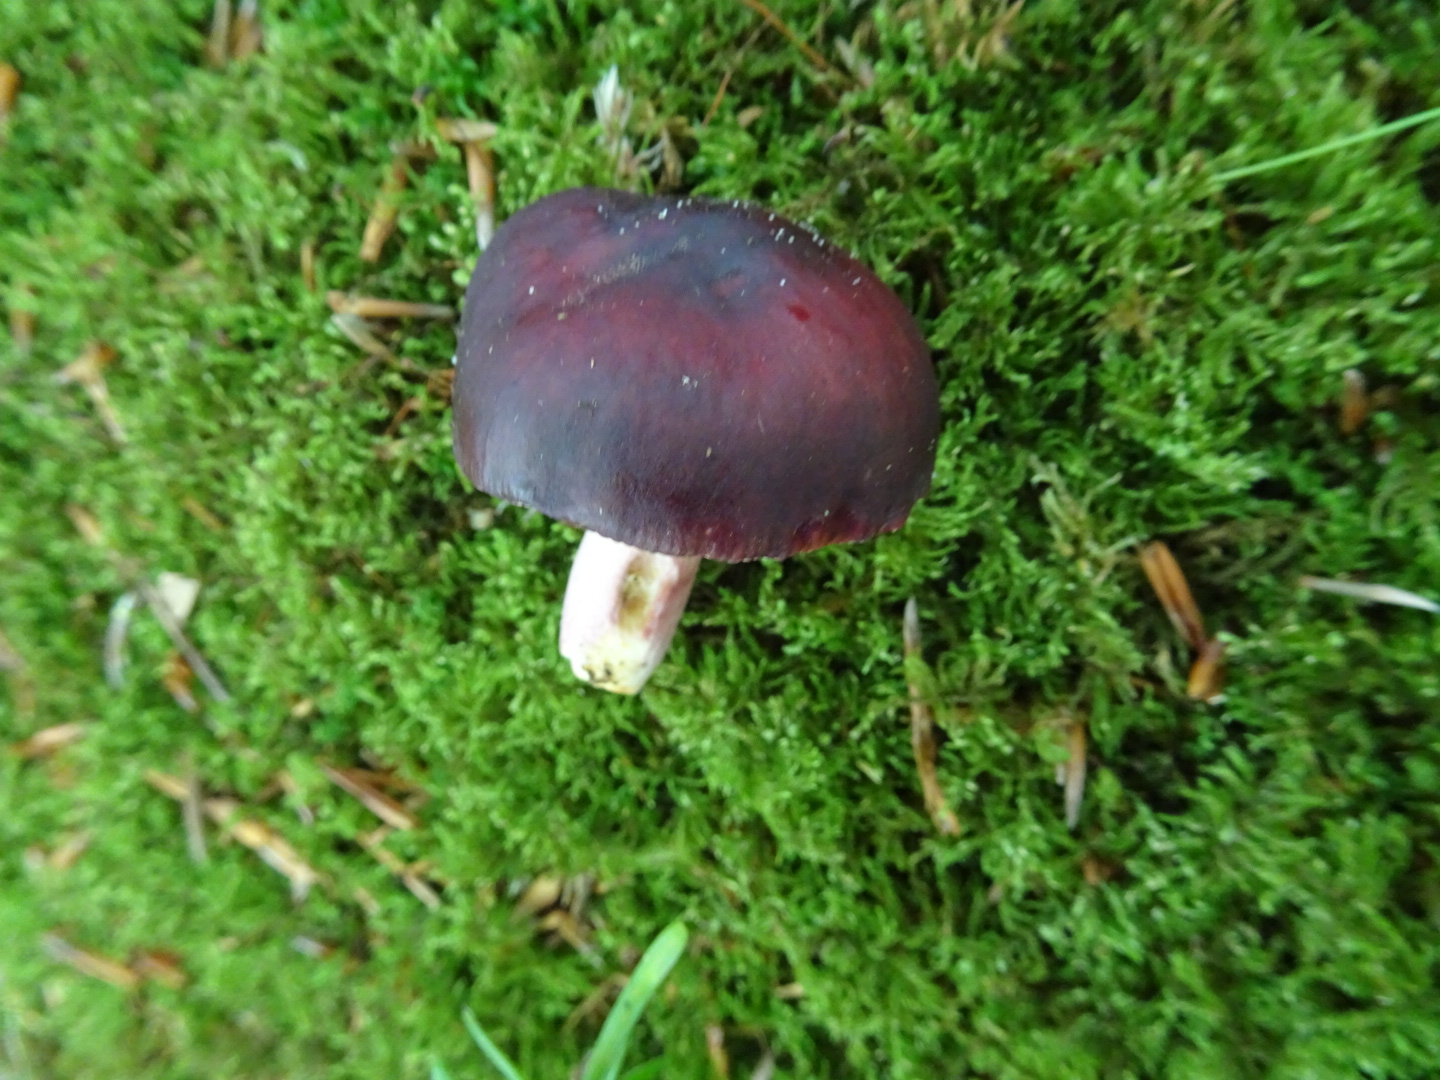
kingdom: Fungi
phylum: Basidiomycota
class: Agaricomycetes
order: Russulales
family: Russulaceae
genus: Russula
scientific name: Russula queletii
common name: Quélets skørhat
